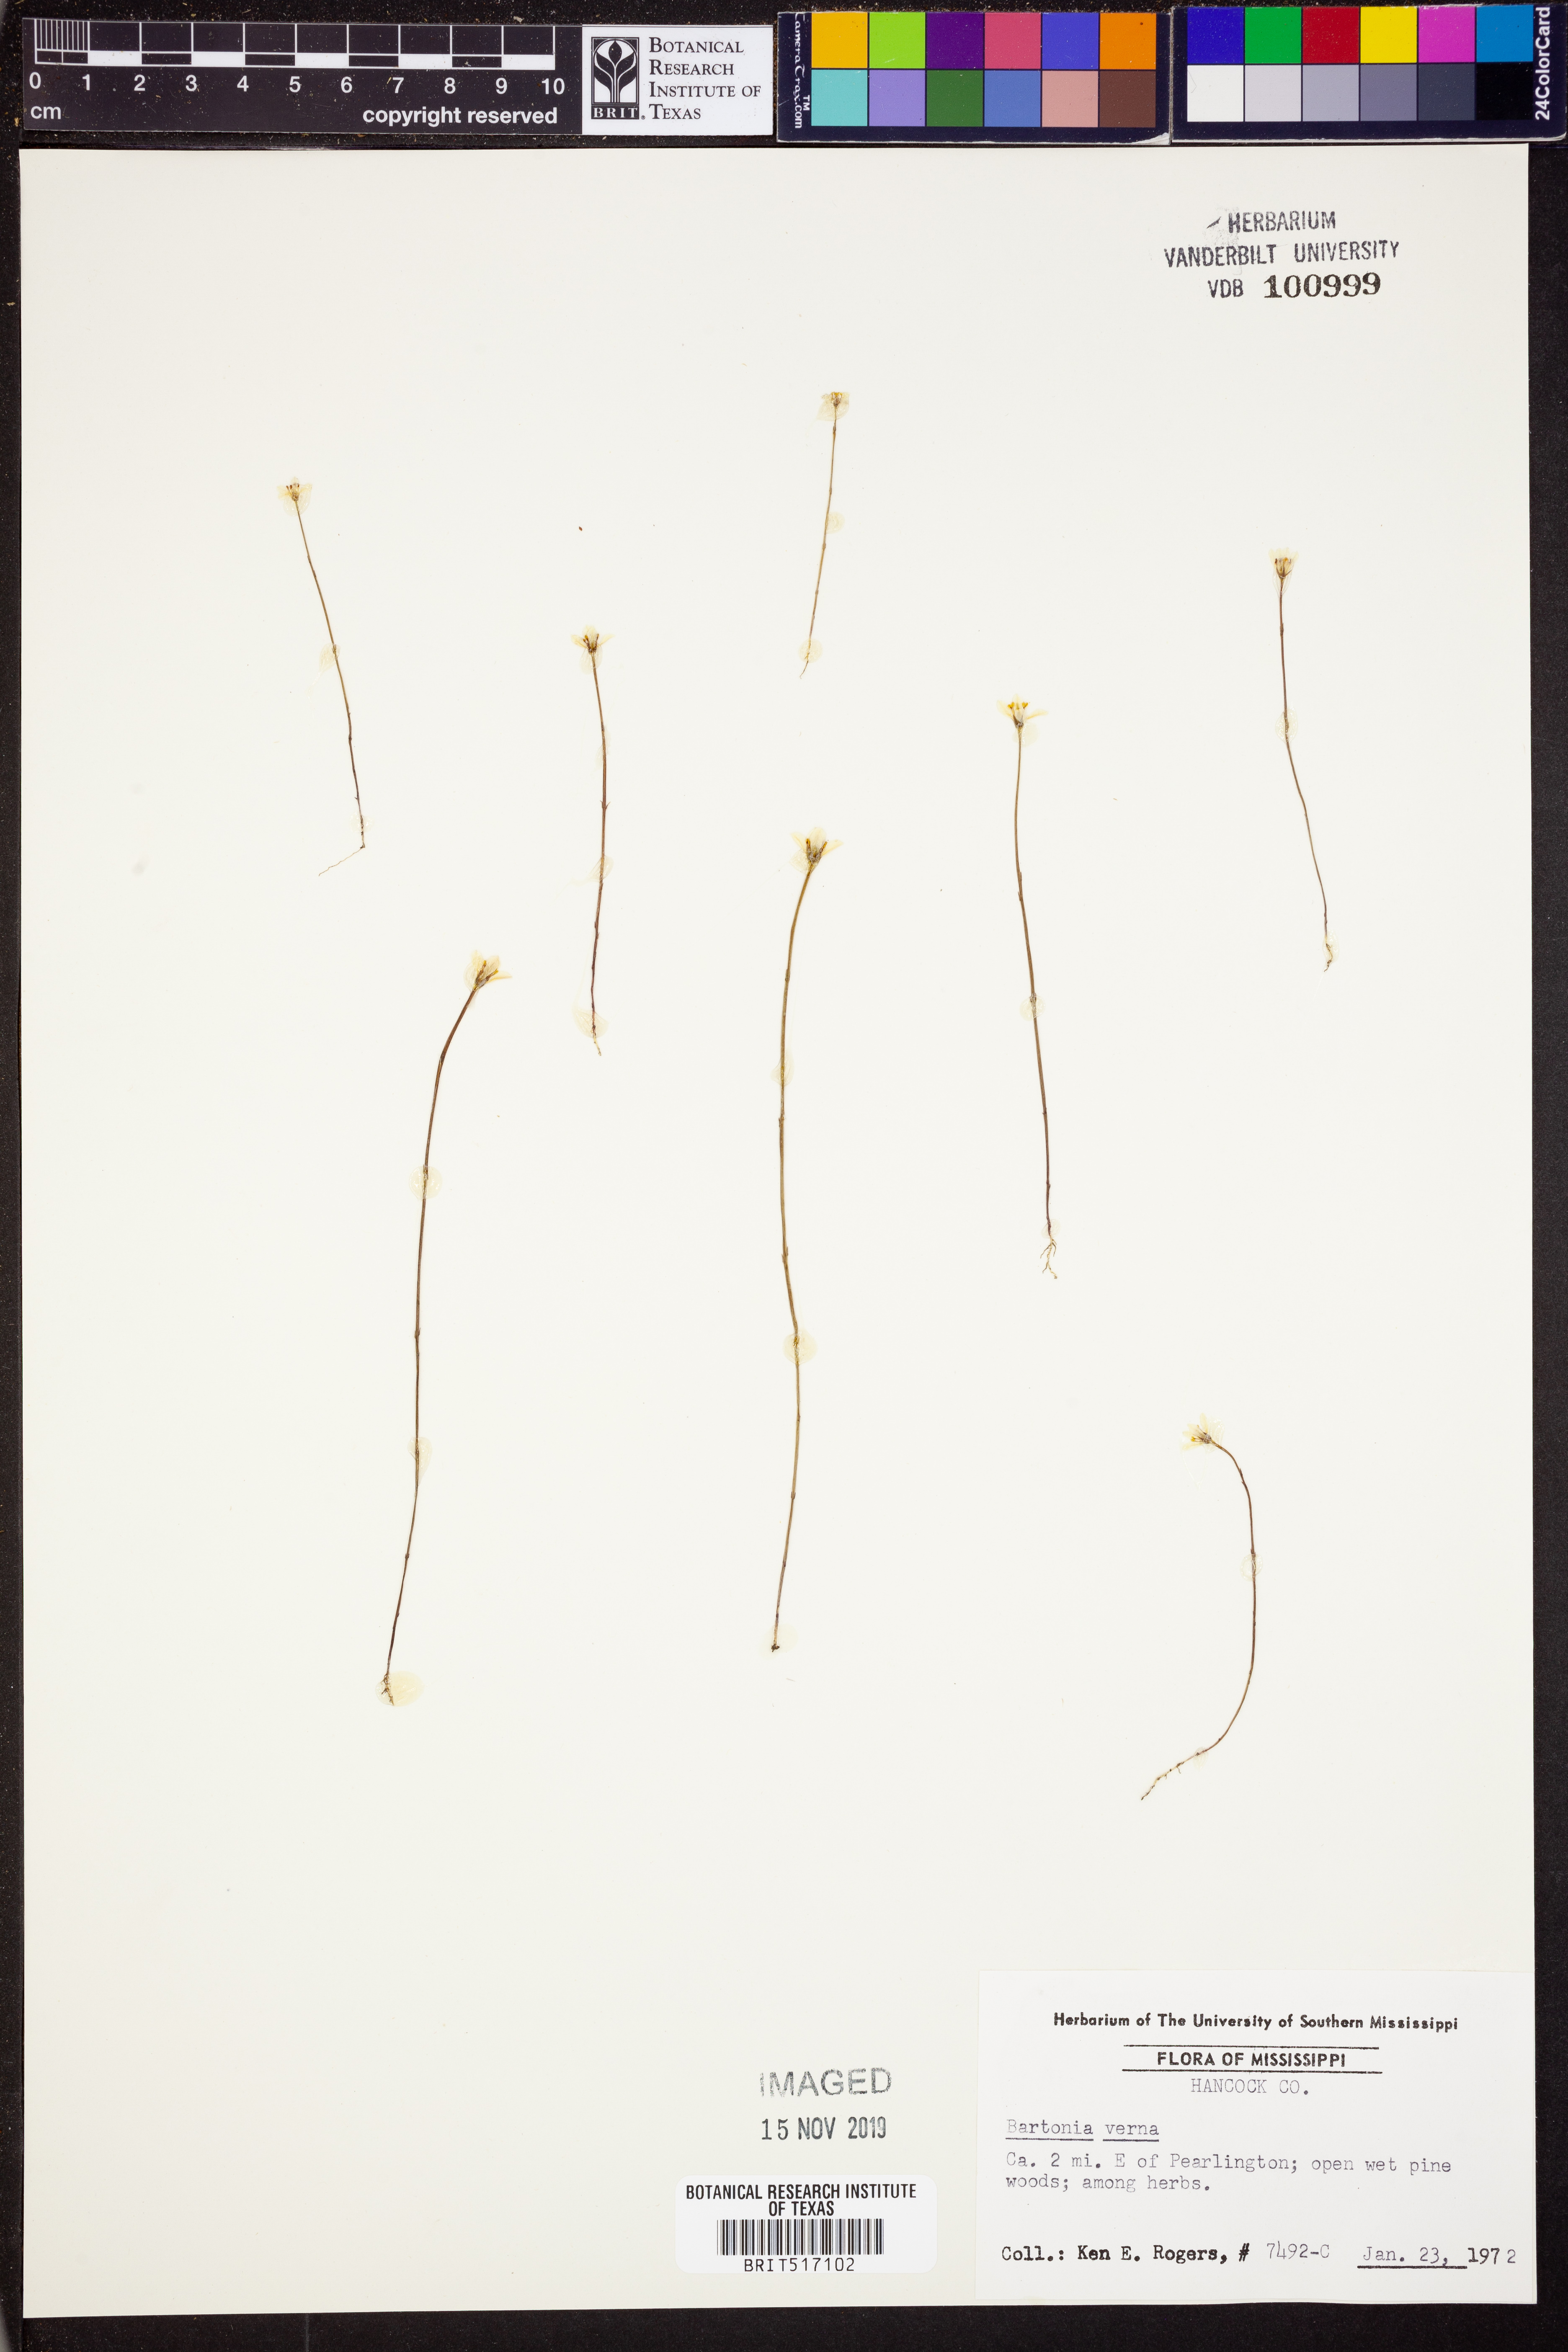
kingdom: Plantae
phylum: Tracheophyta
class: Magnoliopsida
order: Gentianales
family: Gentianaceae
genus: Bartonia
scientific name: Bartonia verna
